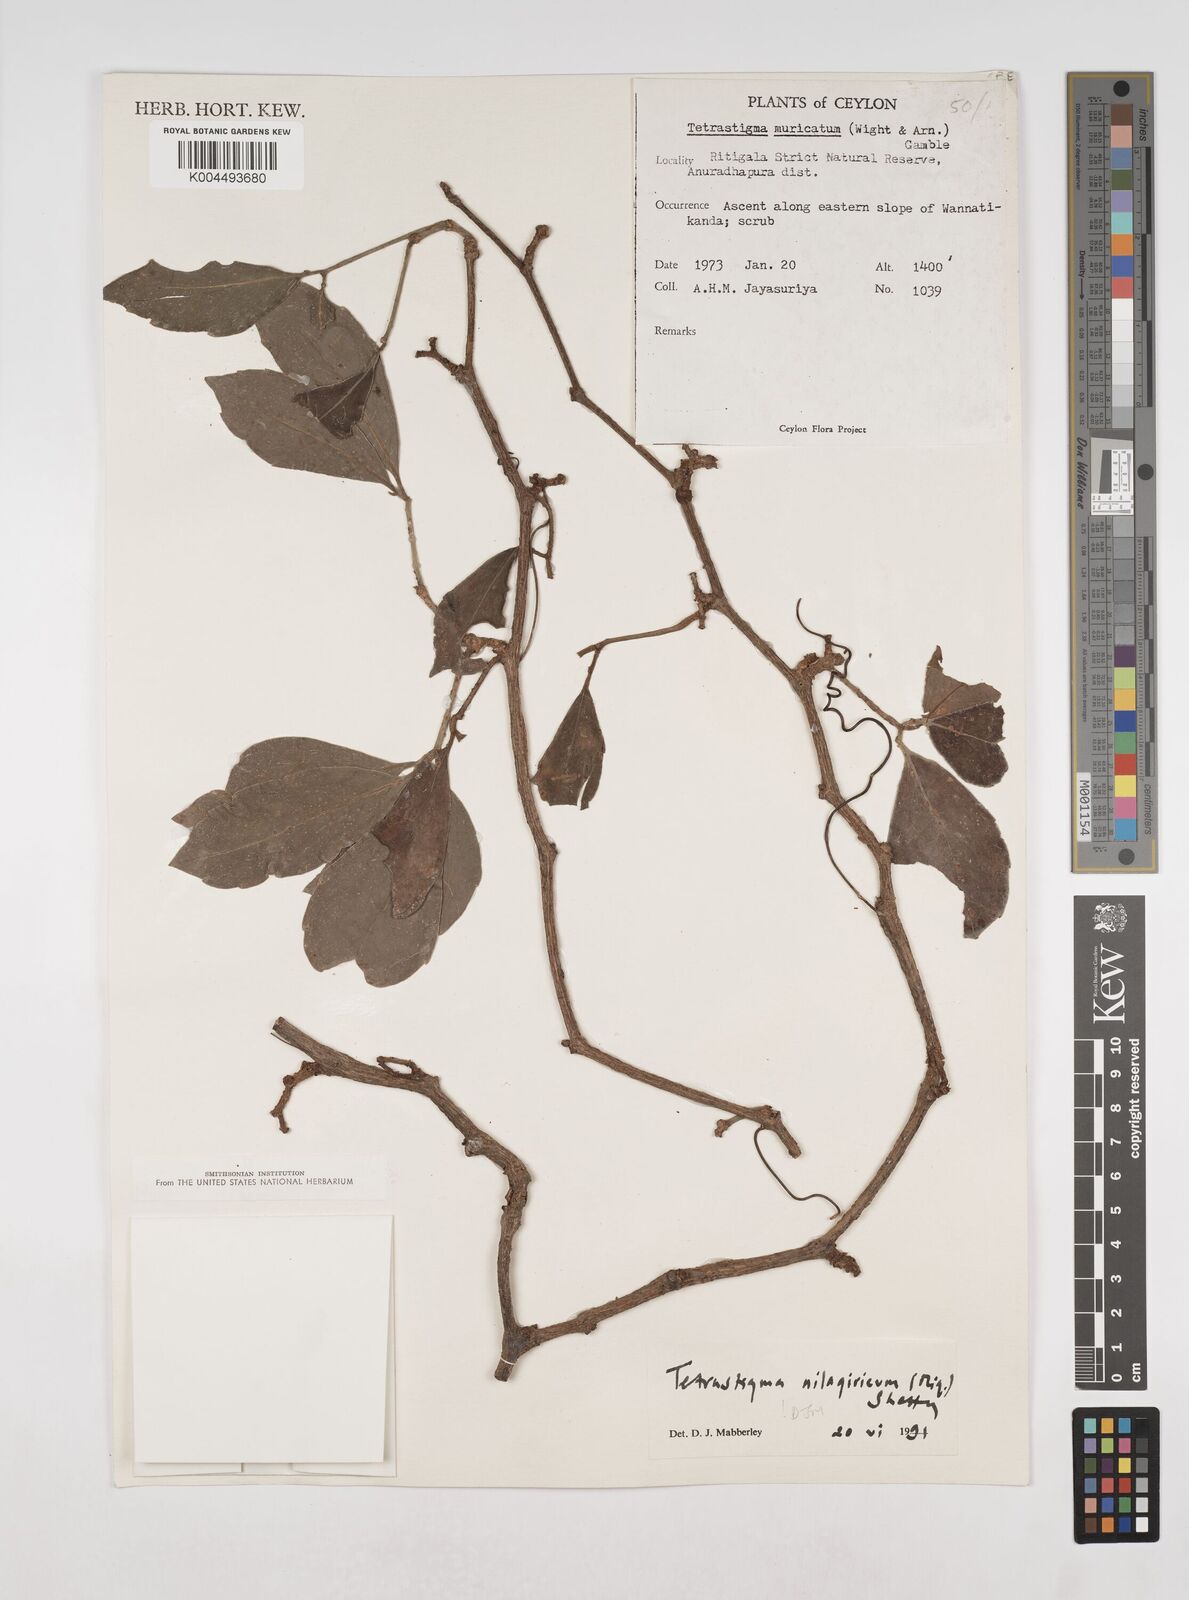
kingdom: Plantae
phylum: Tracheophyta
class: Magnoliopsida
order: Vitales
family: Vitaceae
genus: Tetrastigma
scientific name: Tetrastigma leucostaphylum
